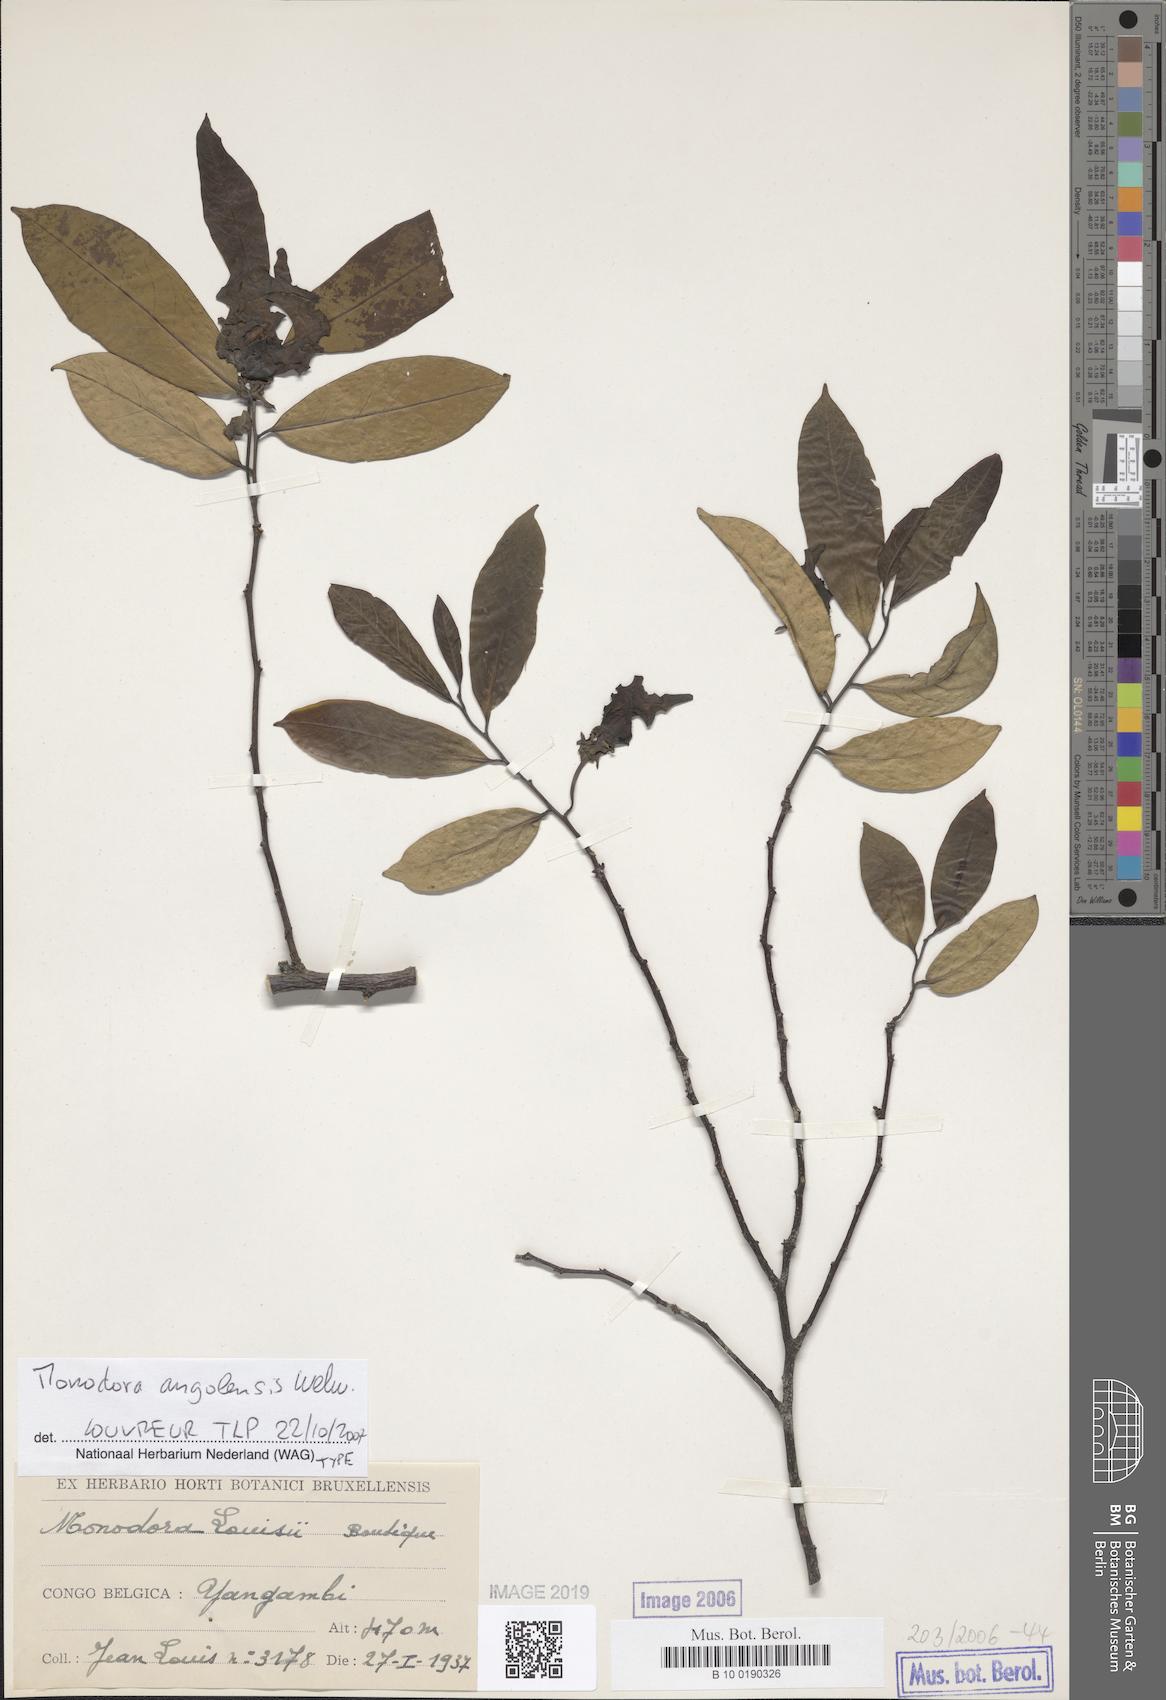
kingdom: Plantae
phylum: Tracheophyta
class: Magnoliopsida
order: Magnoliales
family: Annonaceae
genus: Monodora
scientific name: Monodora angolensis
